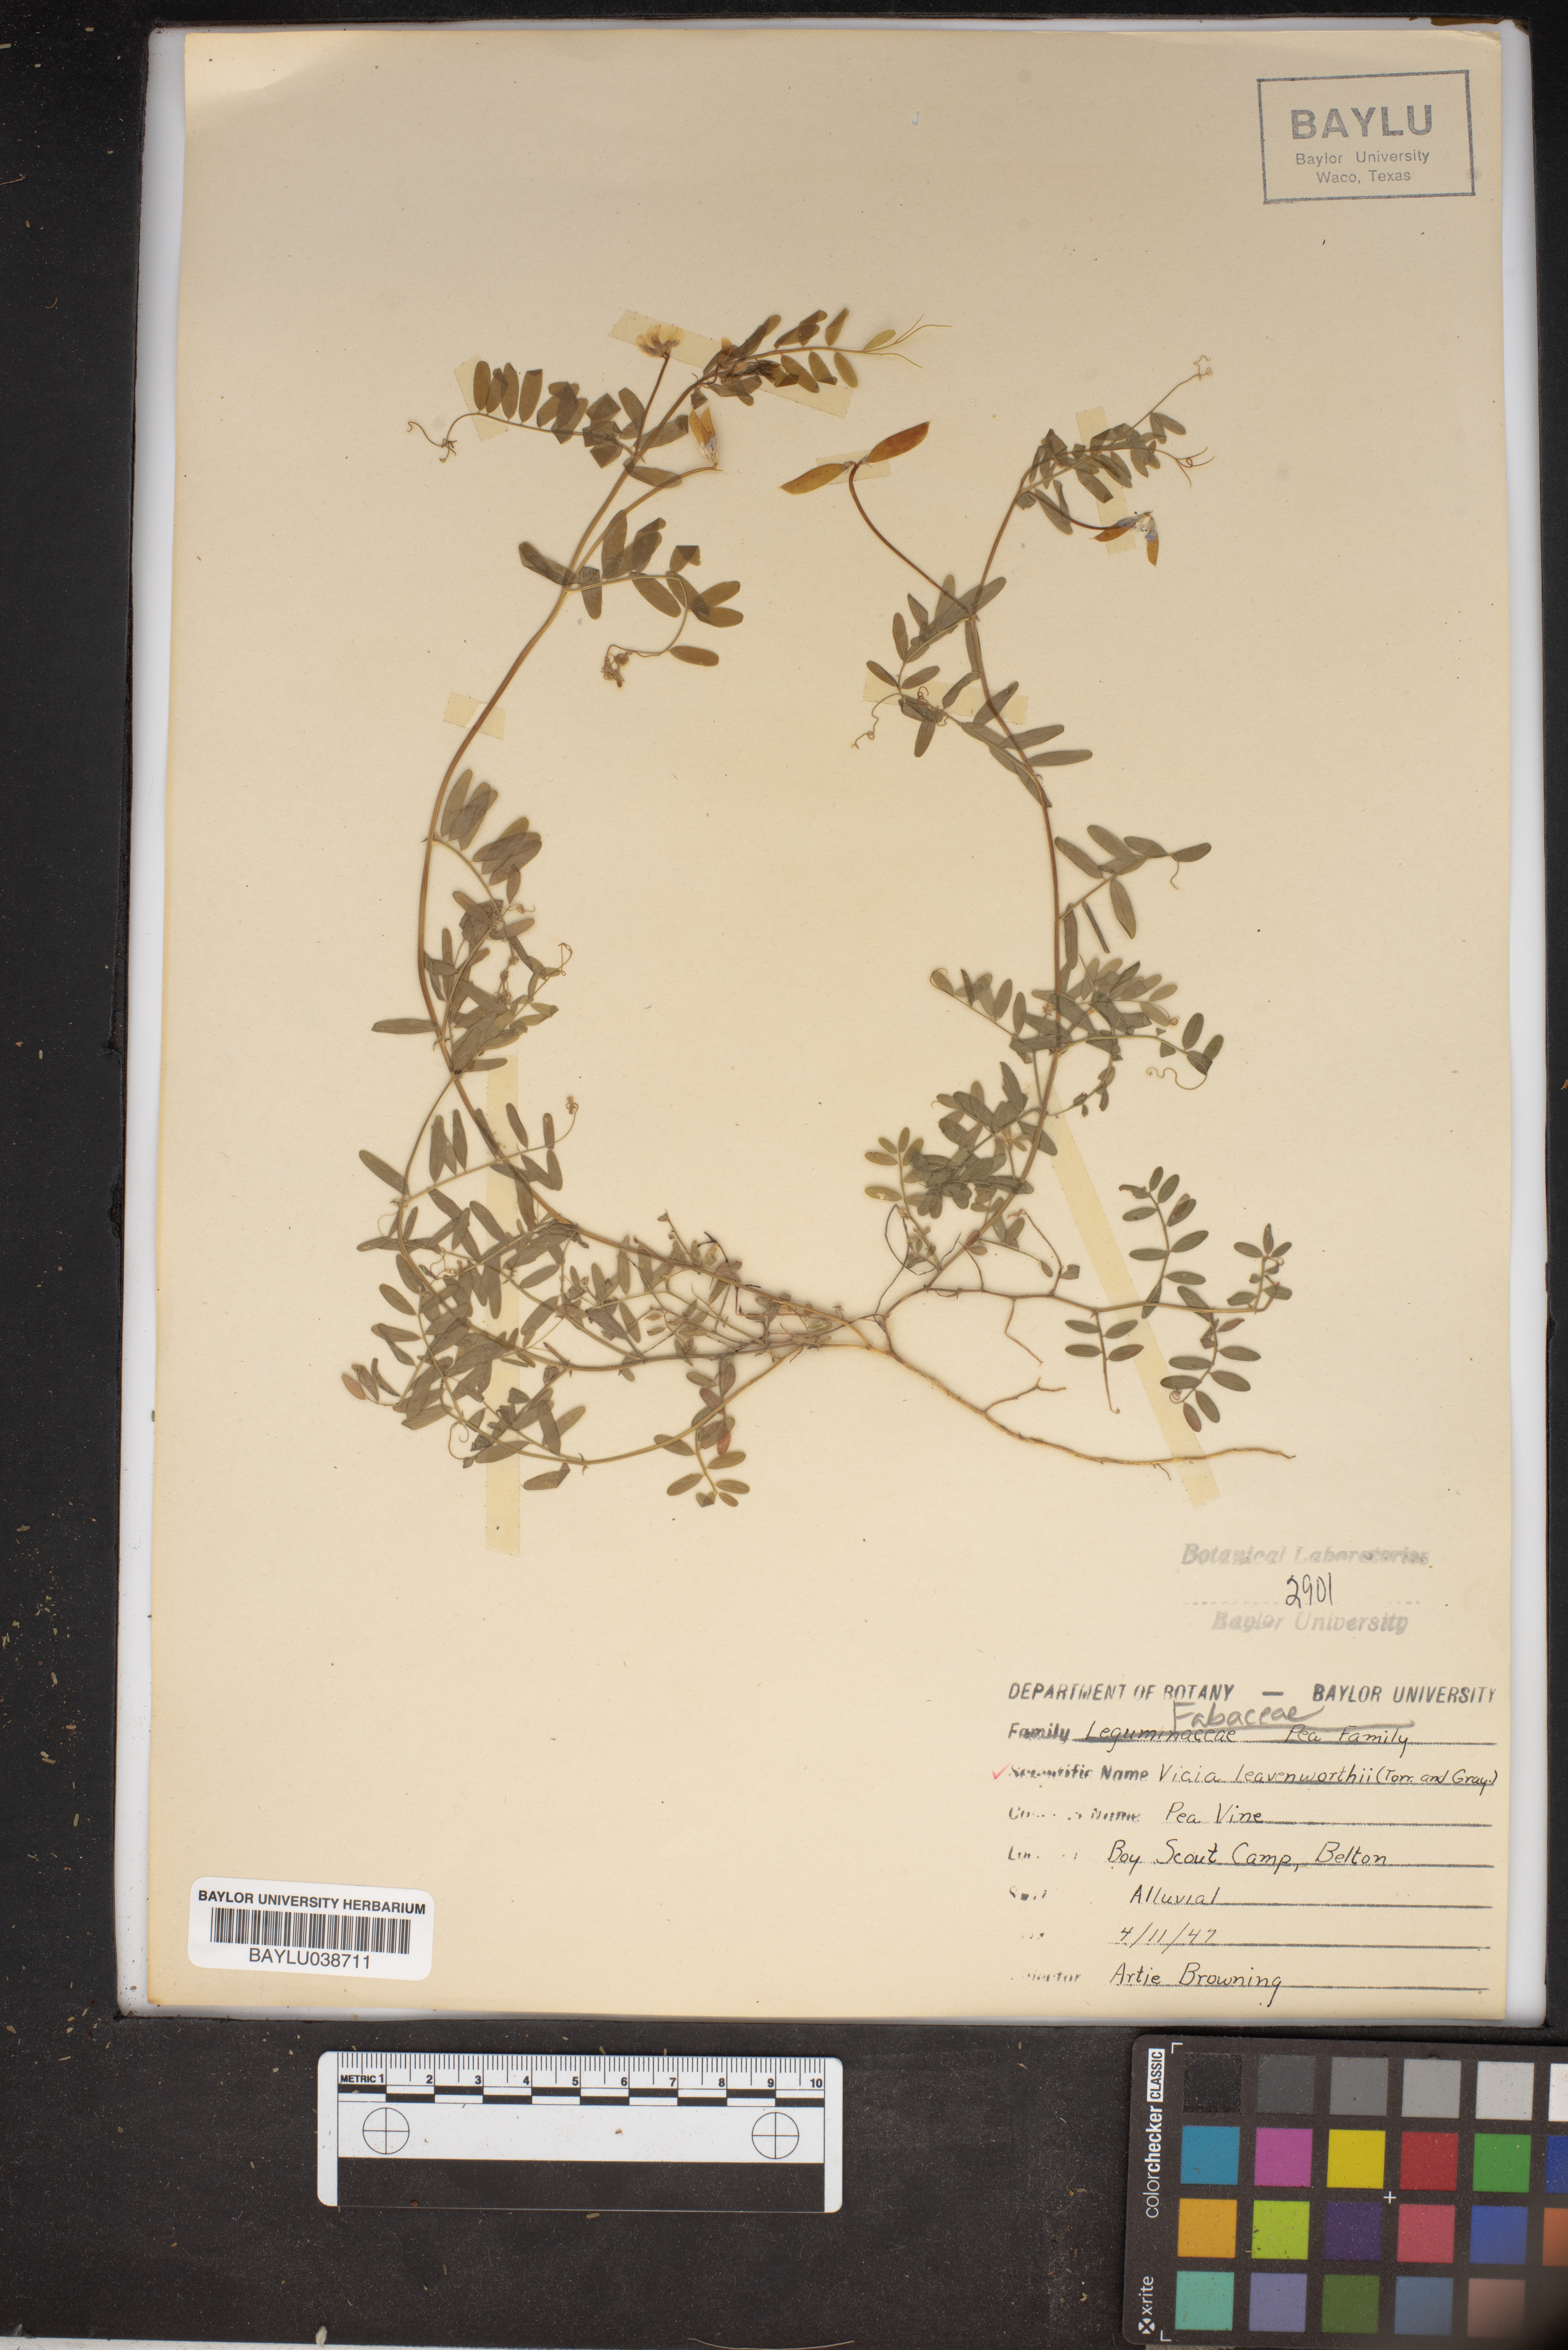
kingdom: Plantae
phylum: Tracheophyta
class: Magnoliopsida
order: Fabales
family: Fabaceae
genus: Vicia
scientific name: Vicia ludoviciana
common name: Louisiana vetch
